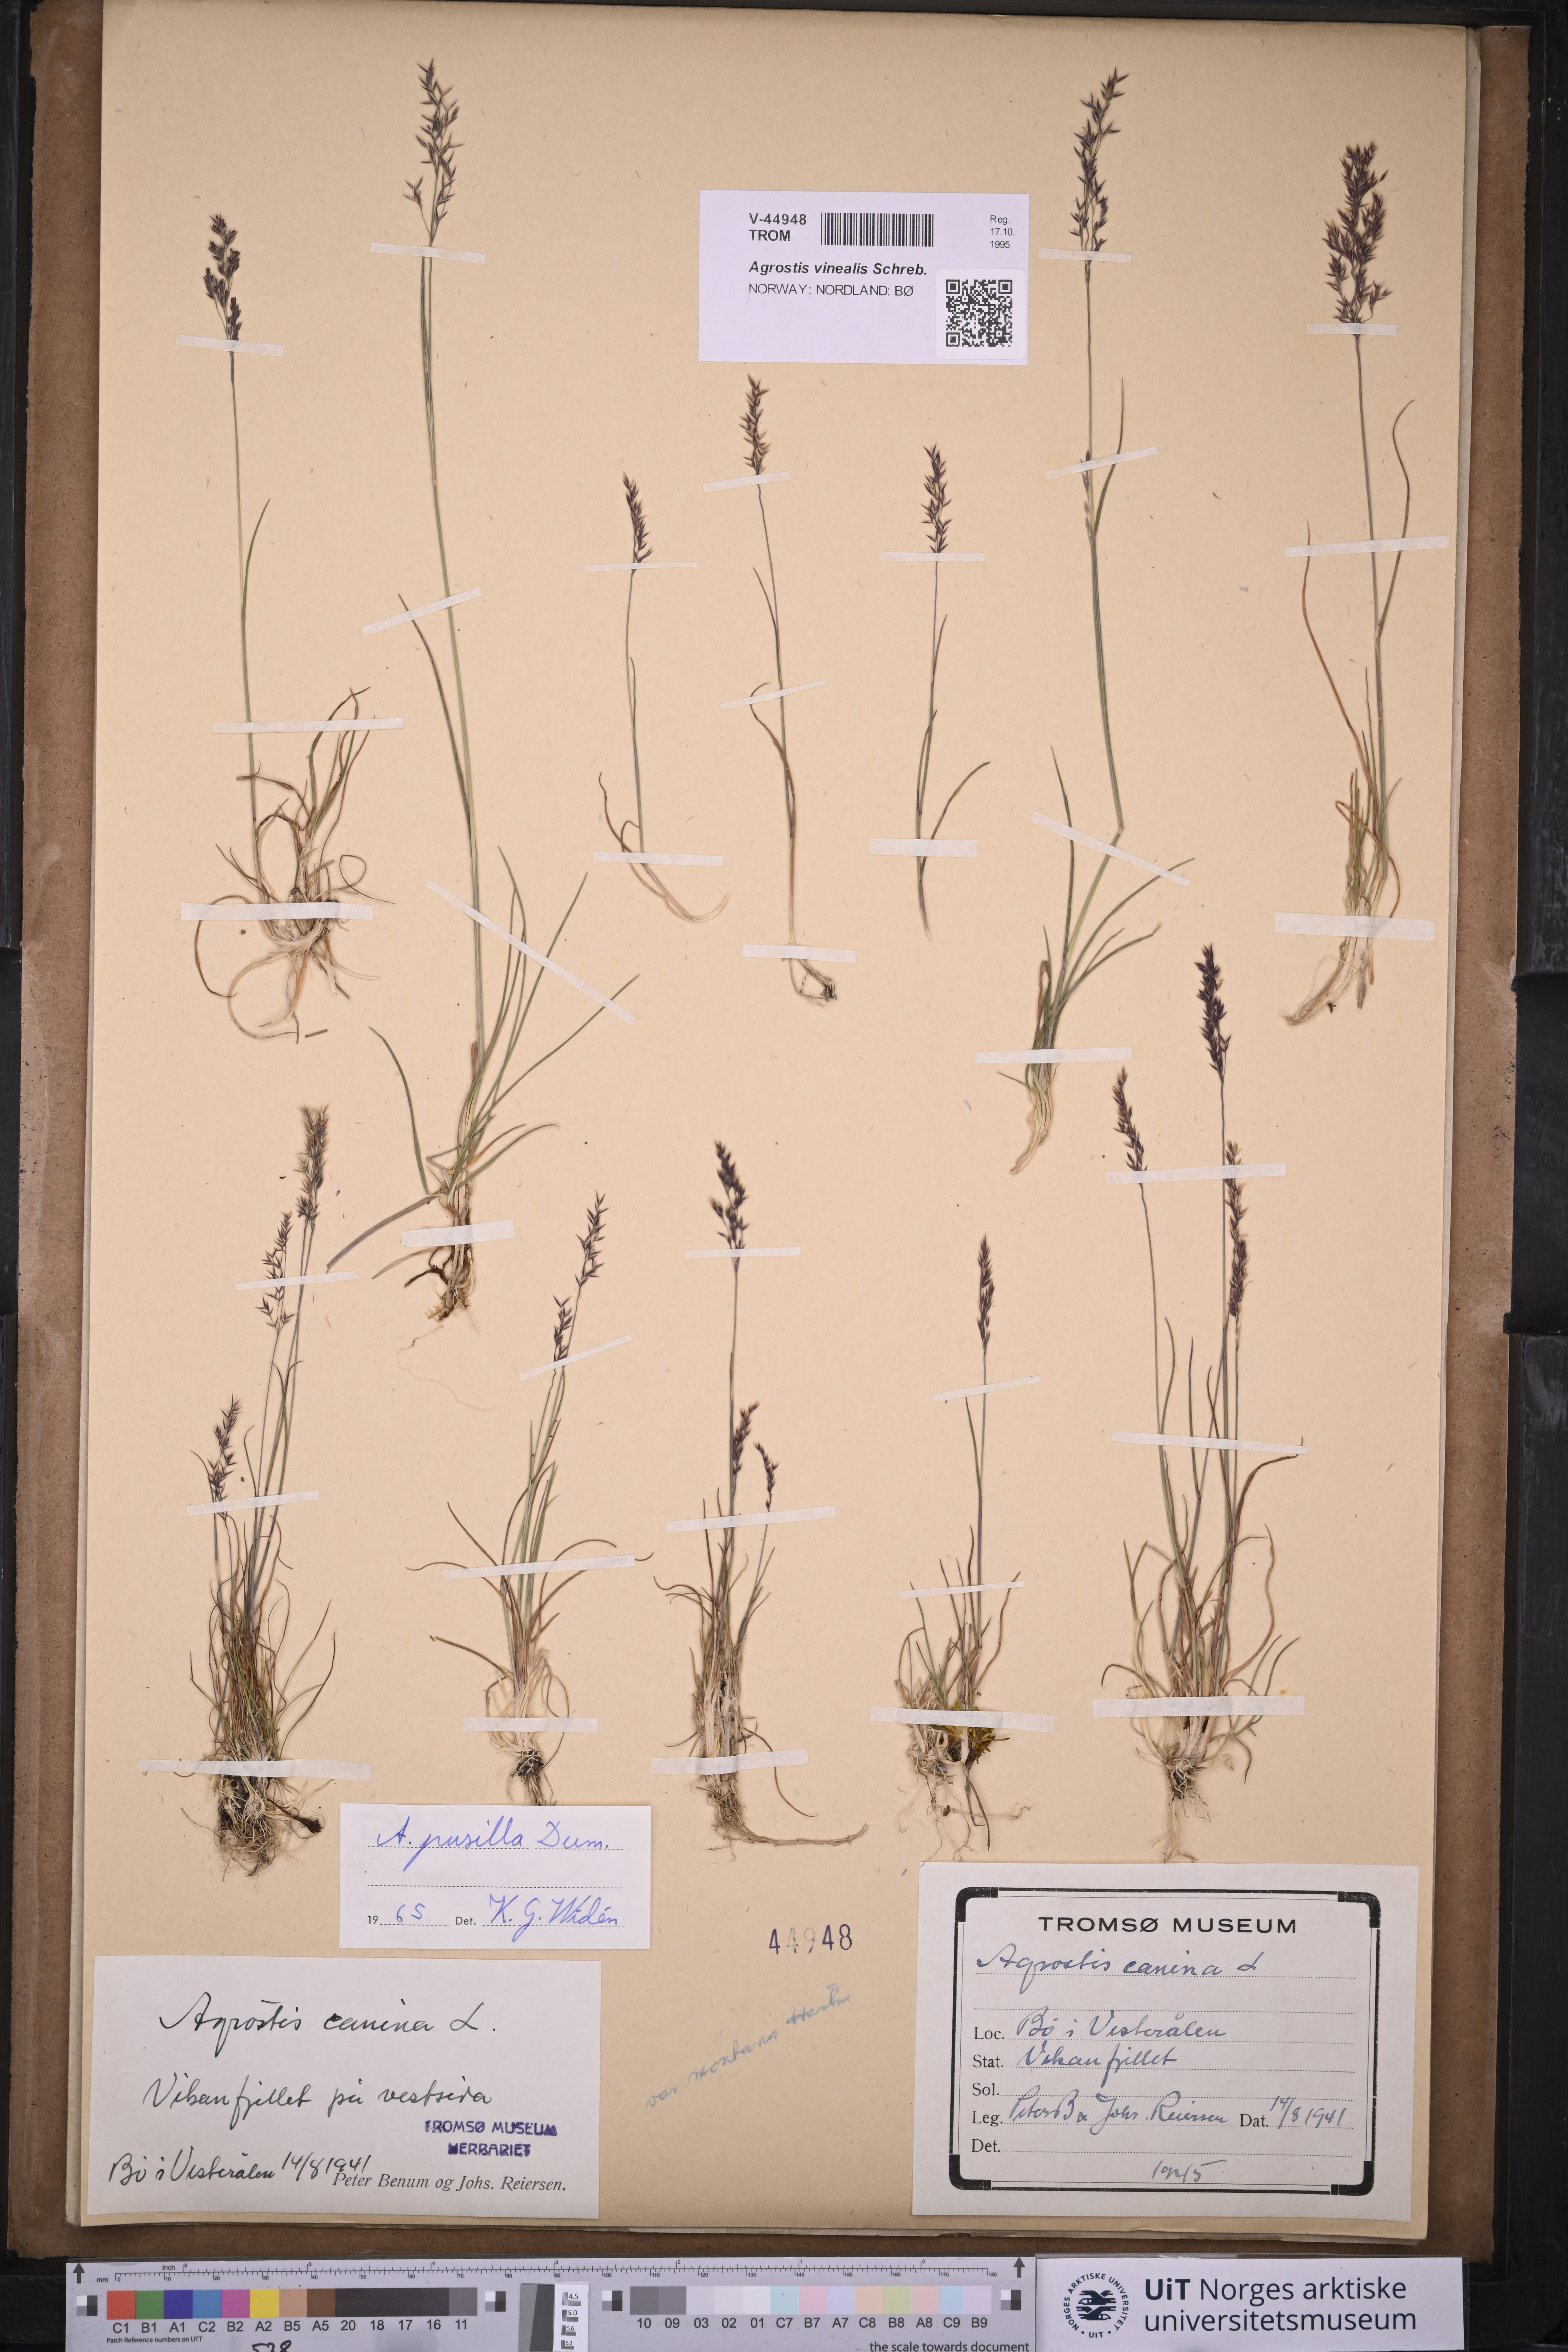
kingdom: Plantae
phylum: Tracheophyta
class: Liliopsida
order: Poales
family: Poaceae
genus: Agrostis
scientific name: Agrostis vinealis
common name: Brown bent
